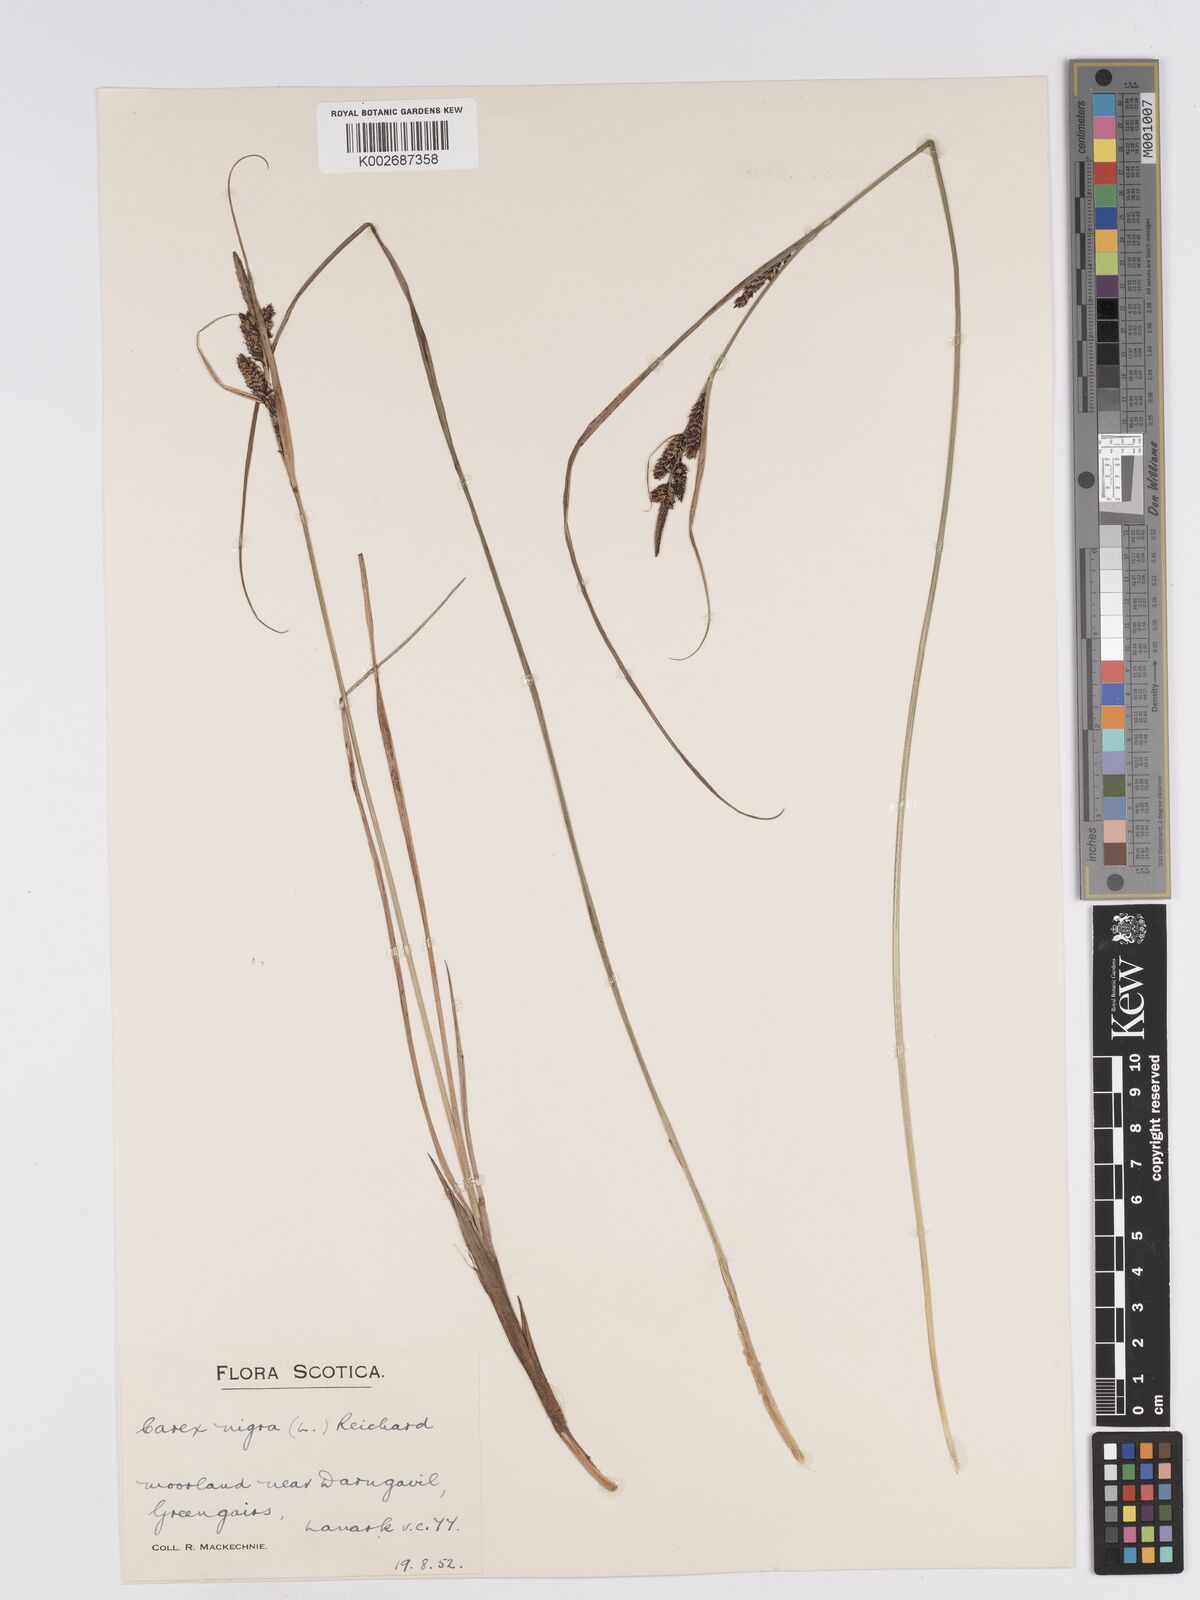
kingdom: Plantae
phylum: Tracheophyta
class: Liliopsida
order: Poales
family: Cyperaceae
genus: Carex
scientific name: Carex nigra
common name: Common sedge
